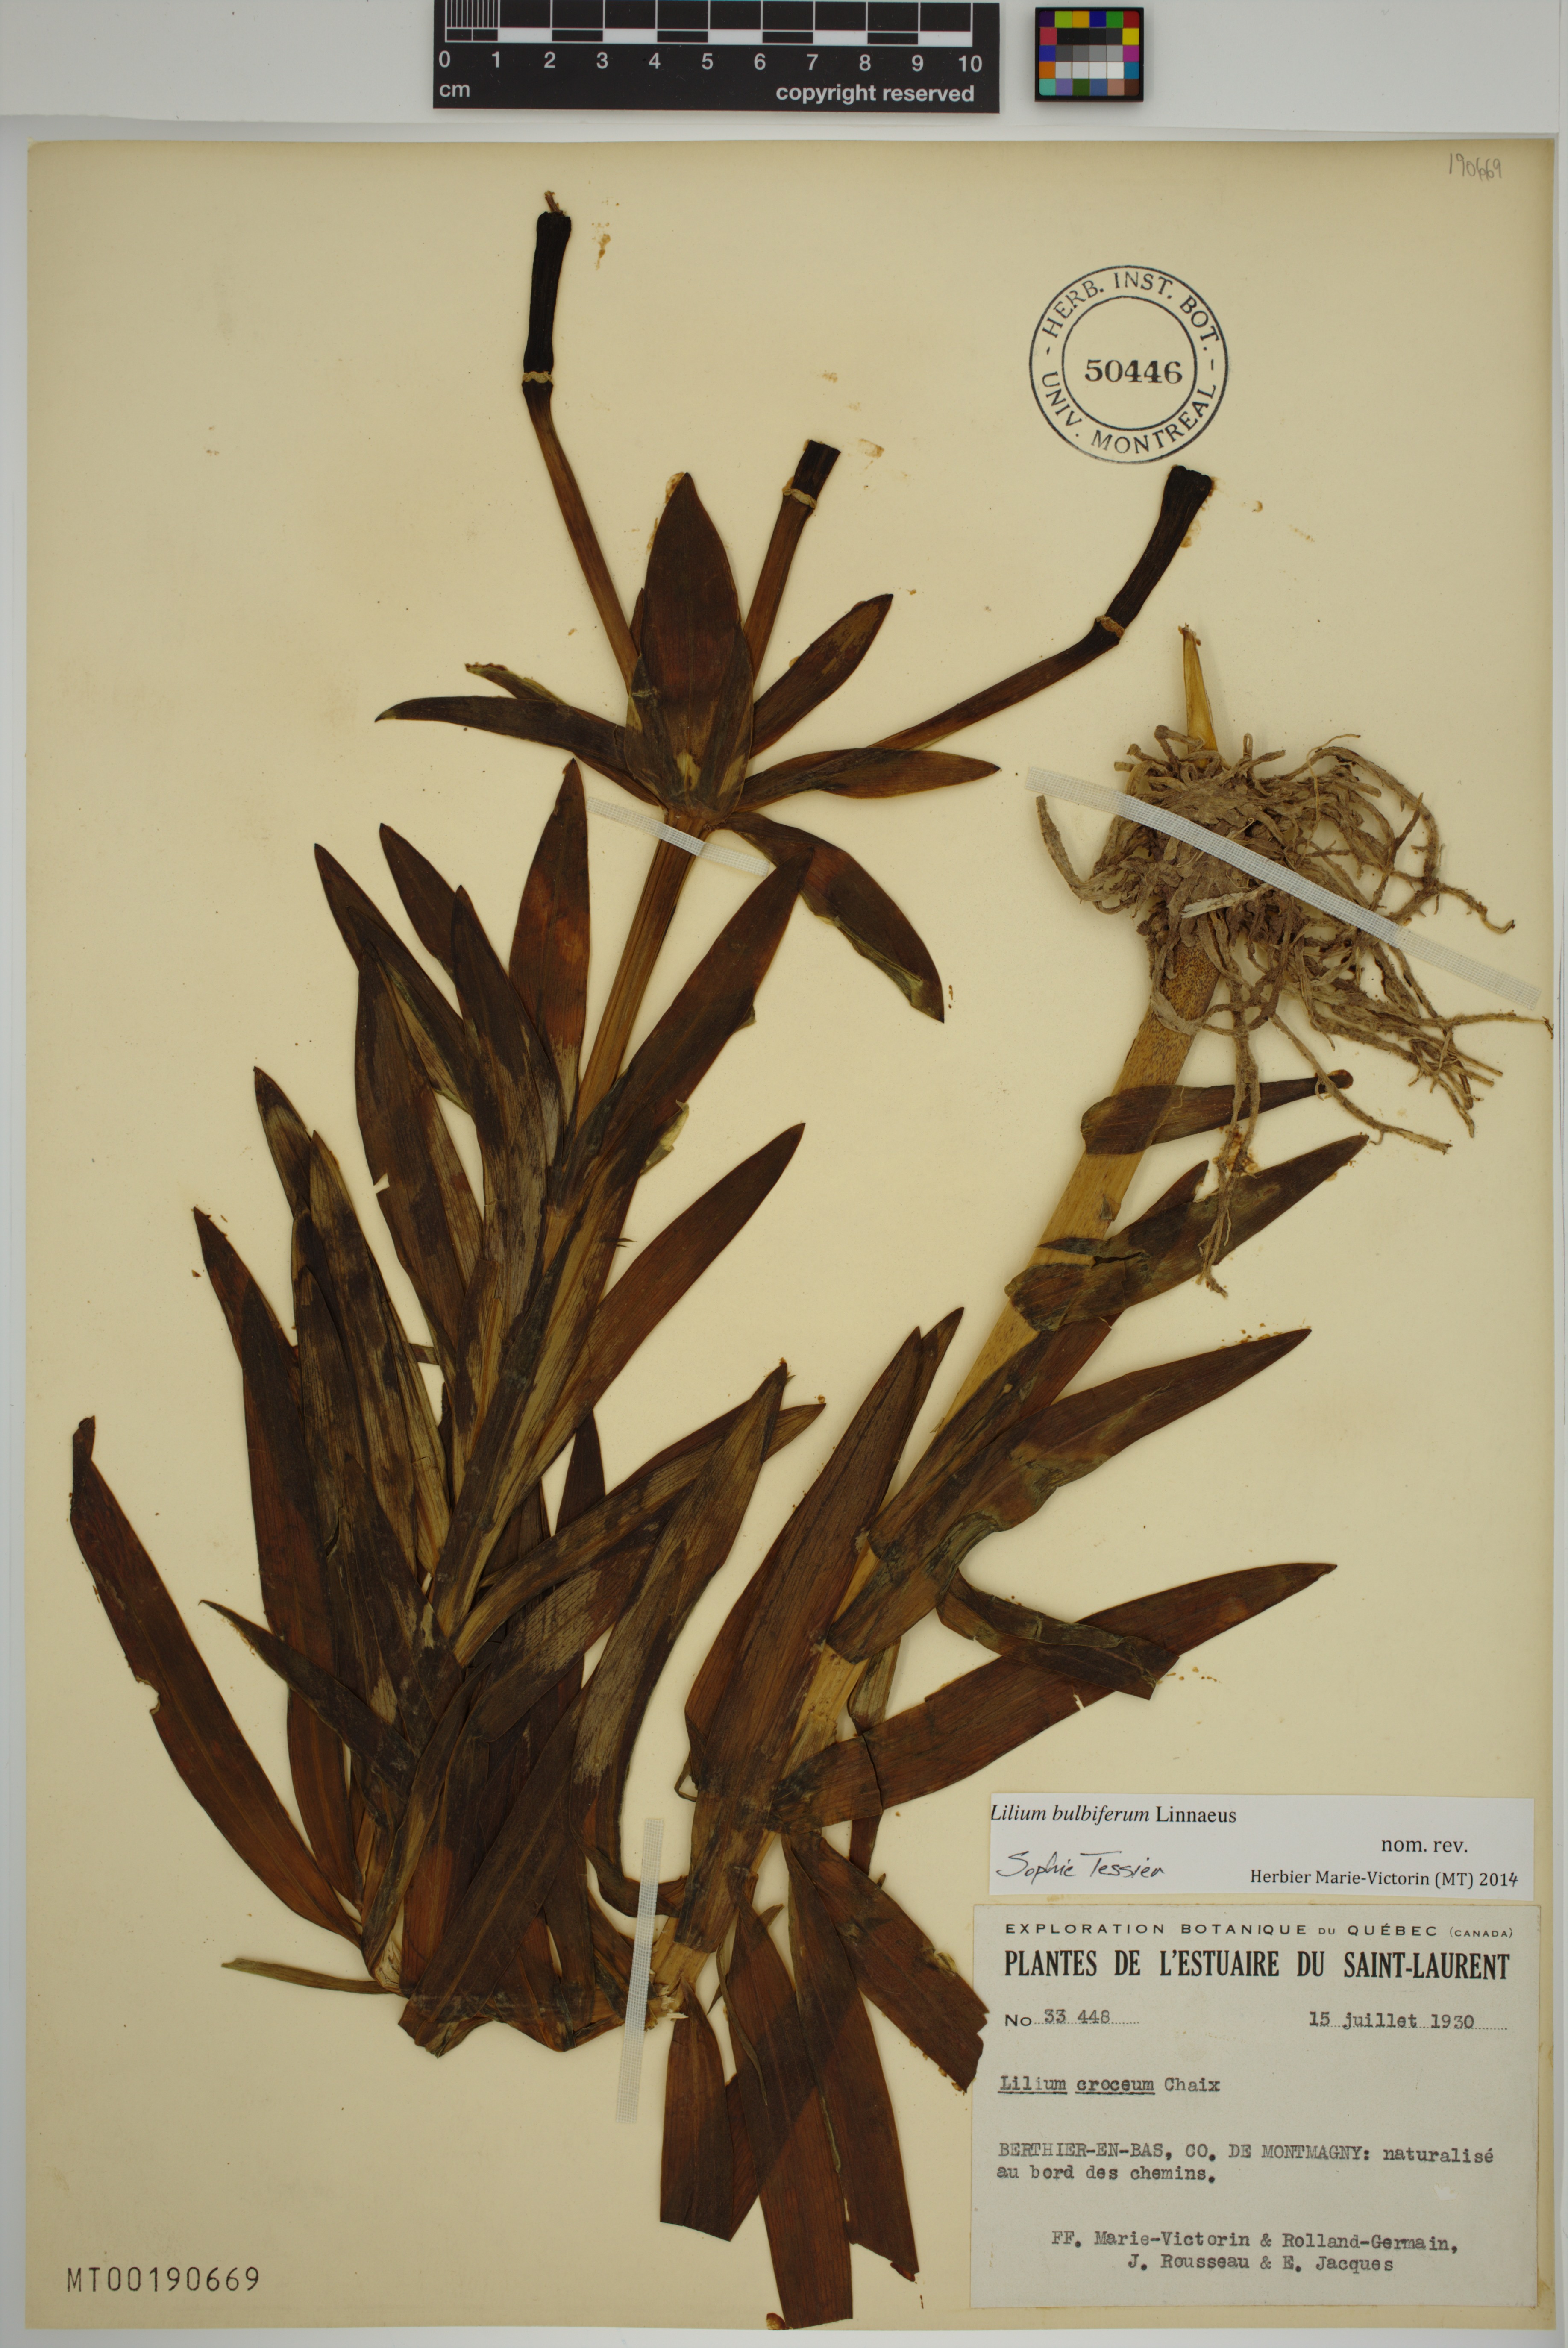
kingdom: Plantae
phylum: Tracheophyta
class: Liliopsida
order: Liliales
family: Liliaceae
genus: Lilium
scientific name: Lilium bulbiferum
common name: Orange lily
